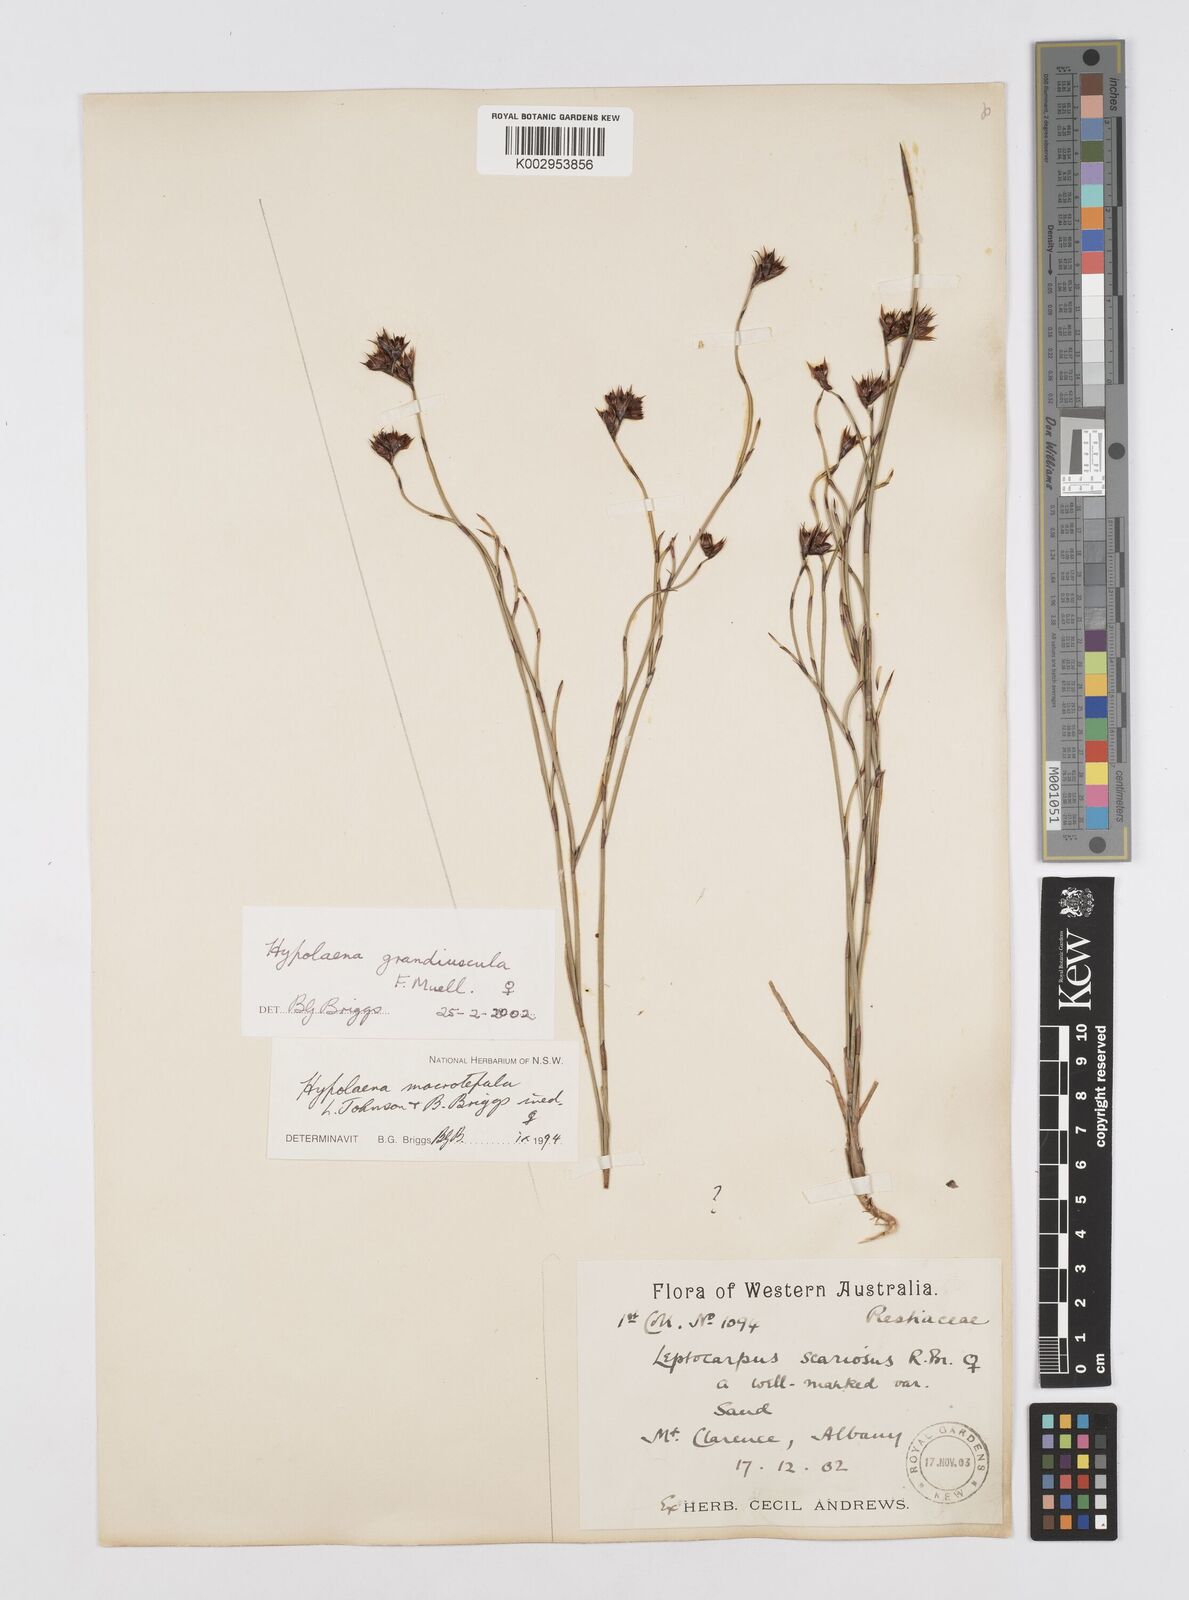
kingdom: Plantae
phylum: Tracheophyta
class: Liliopsida
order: Poales
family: Restionaceae
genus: Hypolaena
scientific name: Hypolaena exsulca
